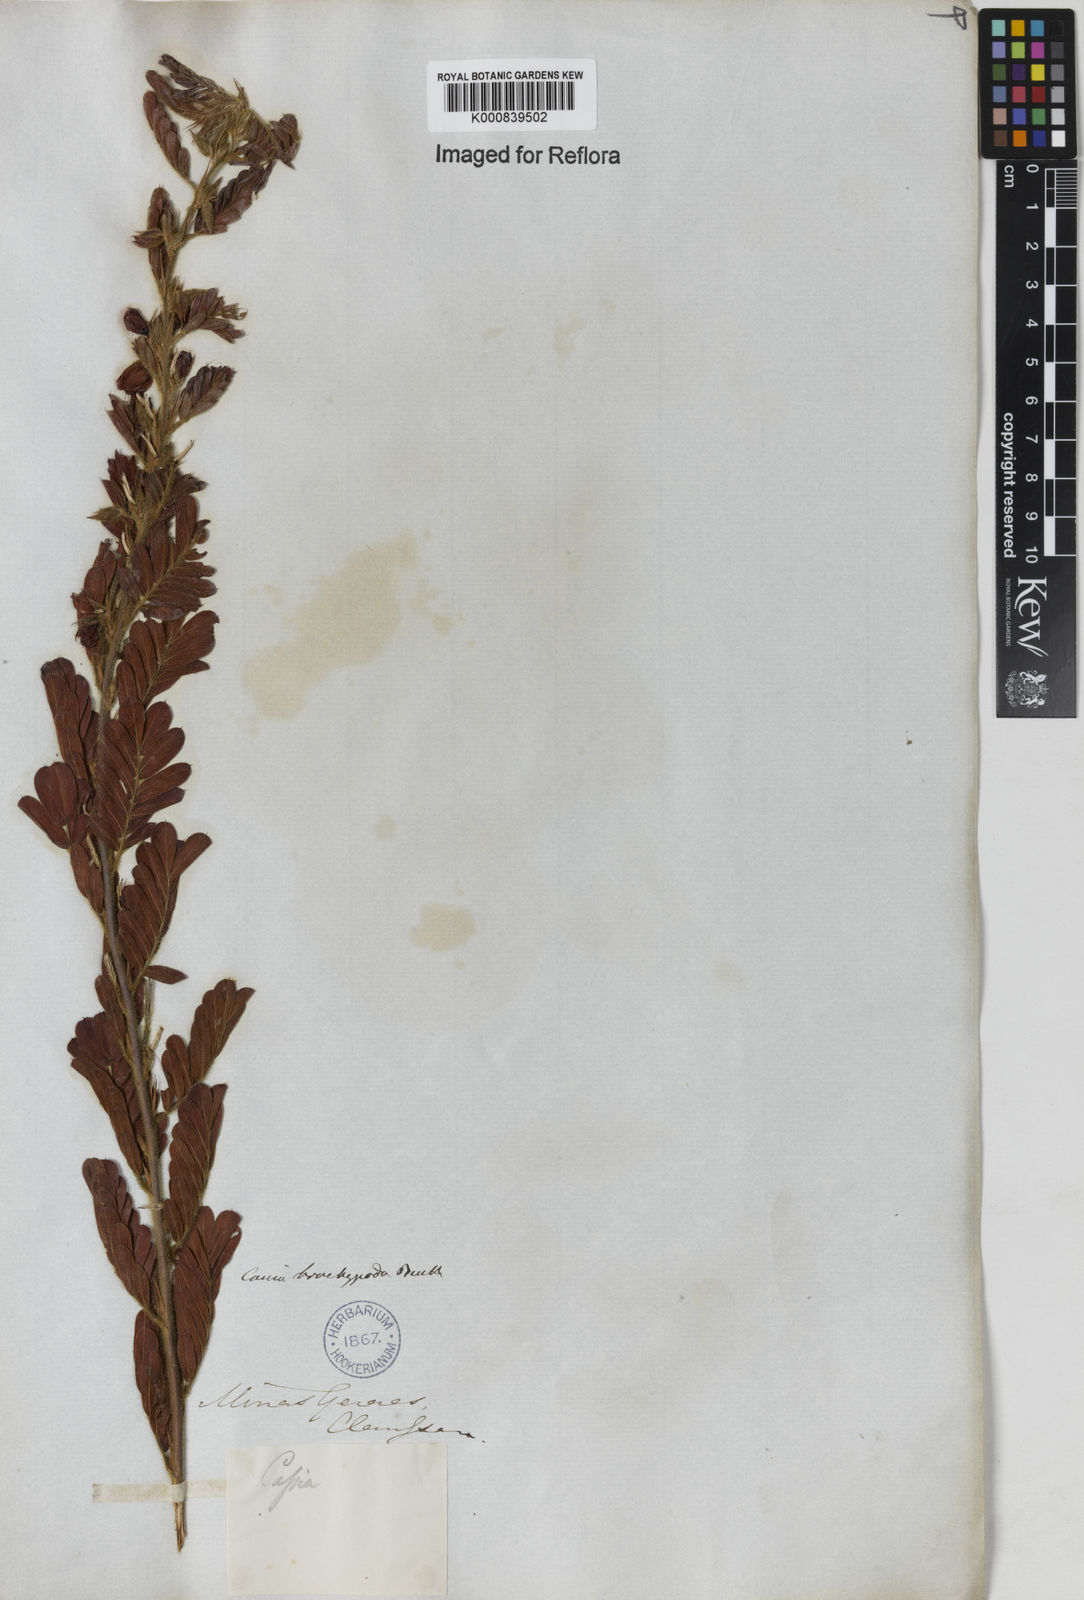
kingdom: Plantae
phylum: Tracheophyta
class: Magnoliopsida
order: Fabales
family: Fabaceae
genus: Chamaecrista
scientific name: Chamaecrista nictitans
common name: Sensitive cassia
